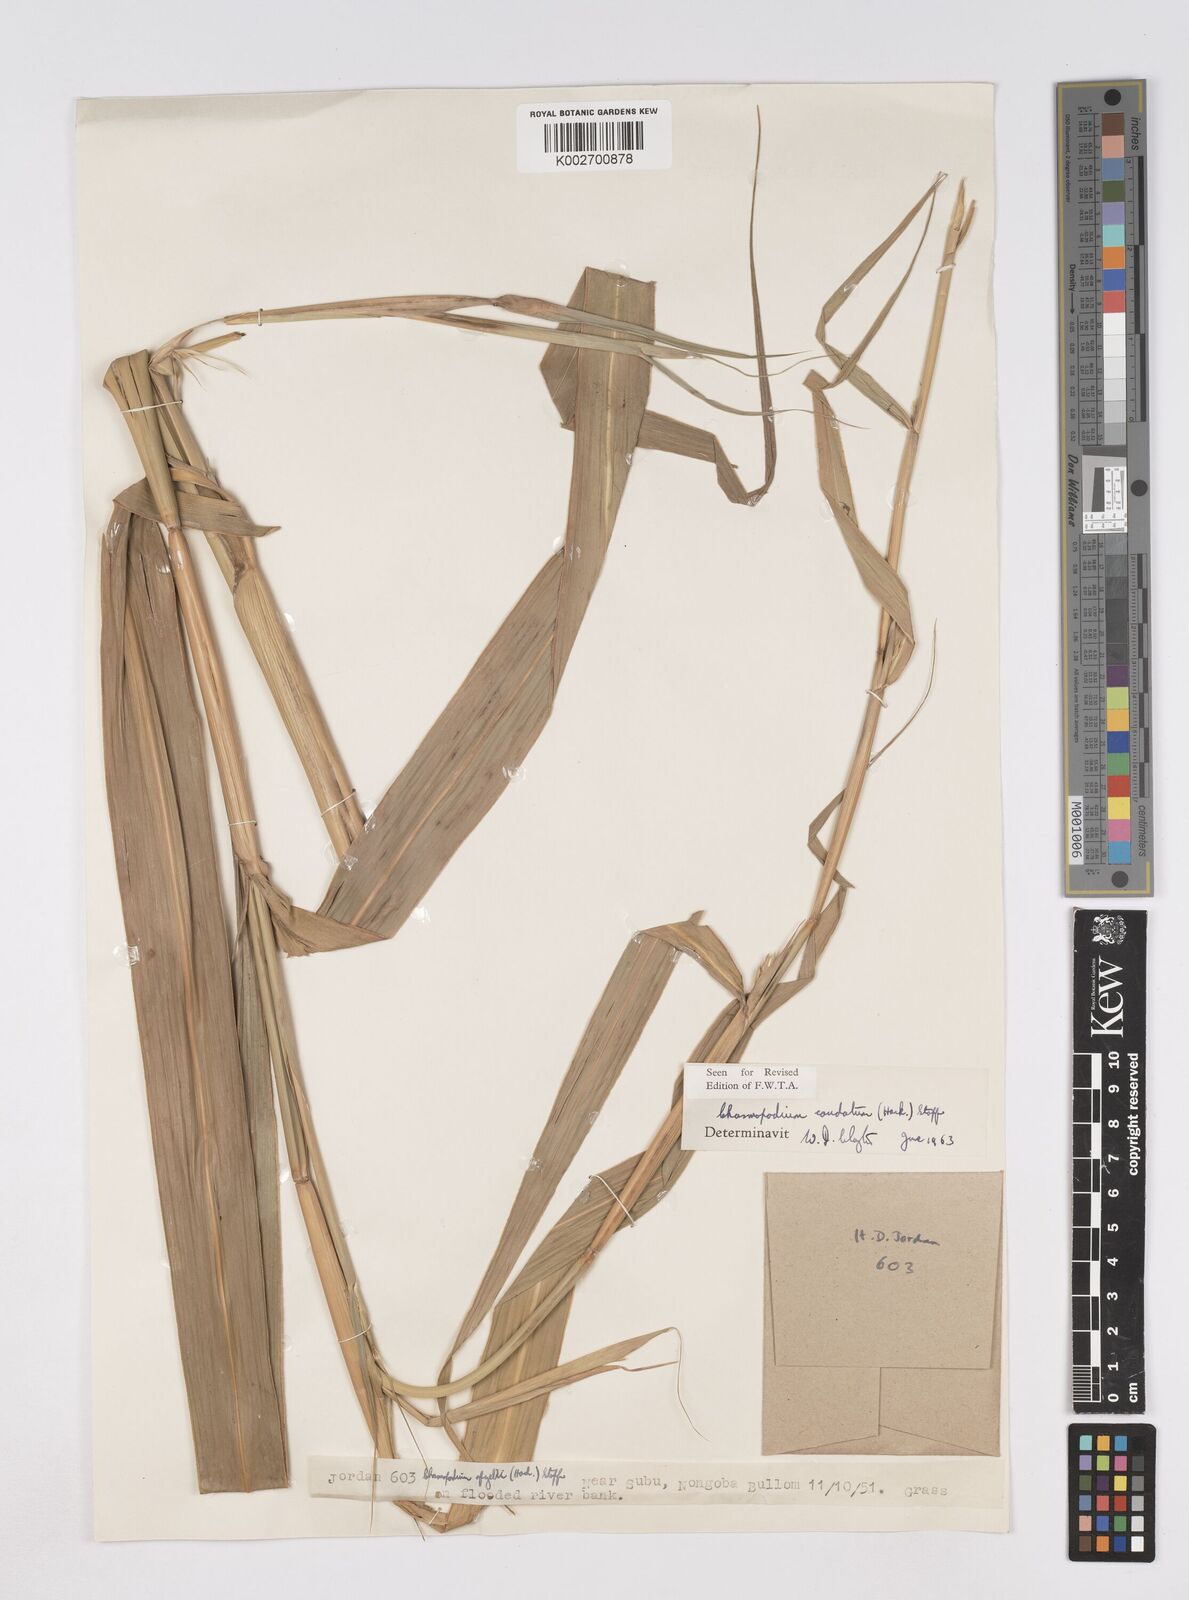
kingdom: Plantae
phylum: Tracheophyta
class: Liliopsida
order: Poales
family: Poaceae
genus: Chasmopodium
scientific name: Chasmopodium caudatum
